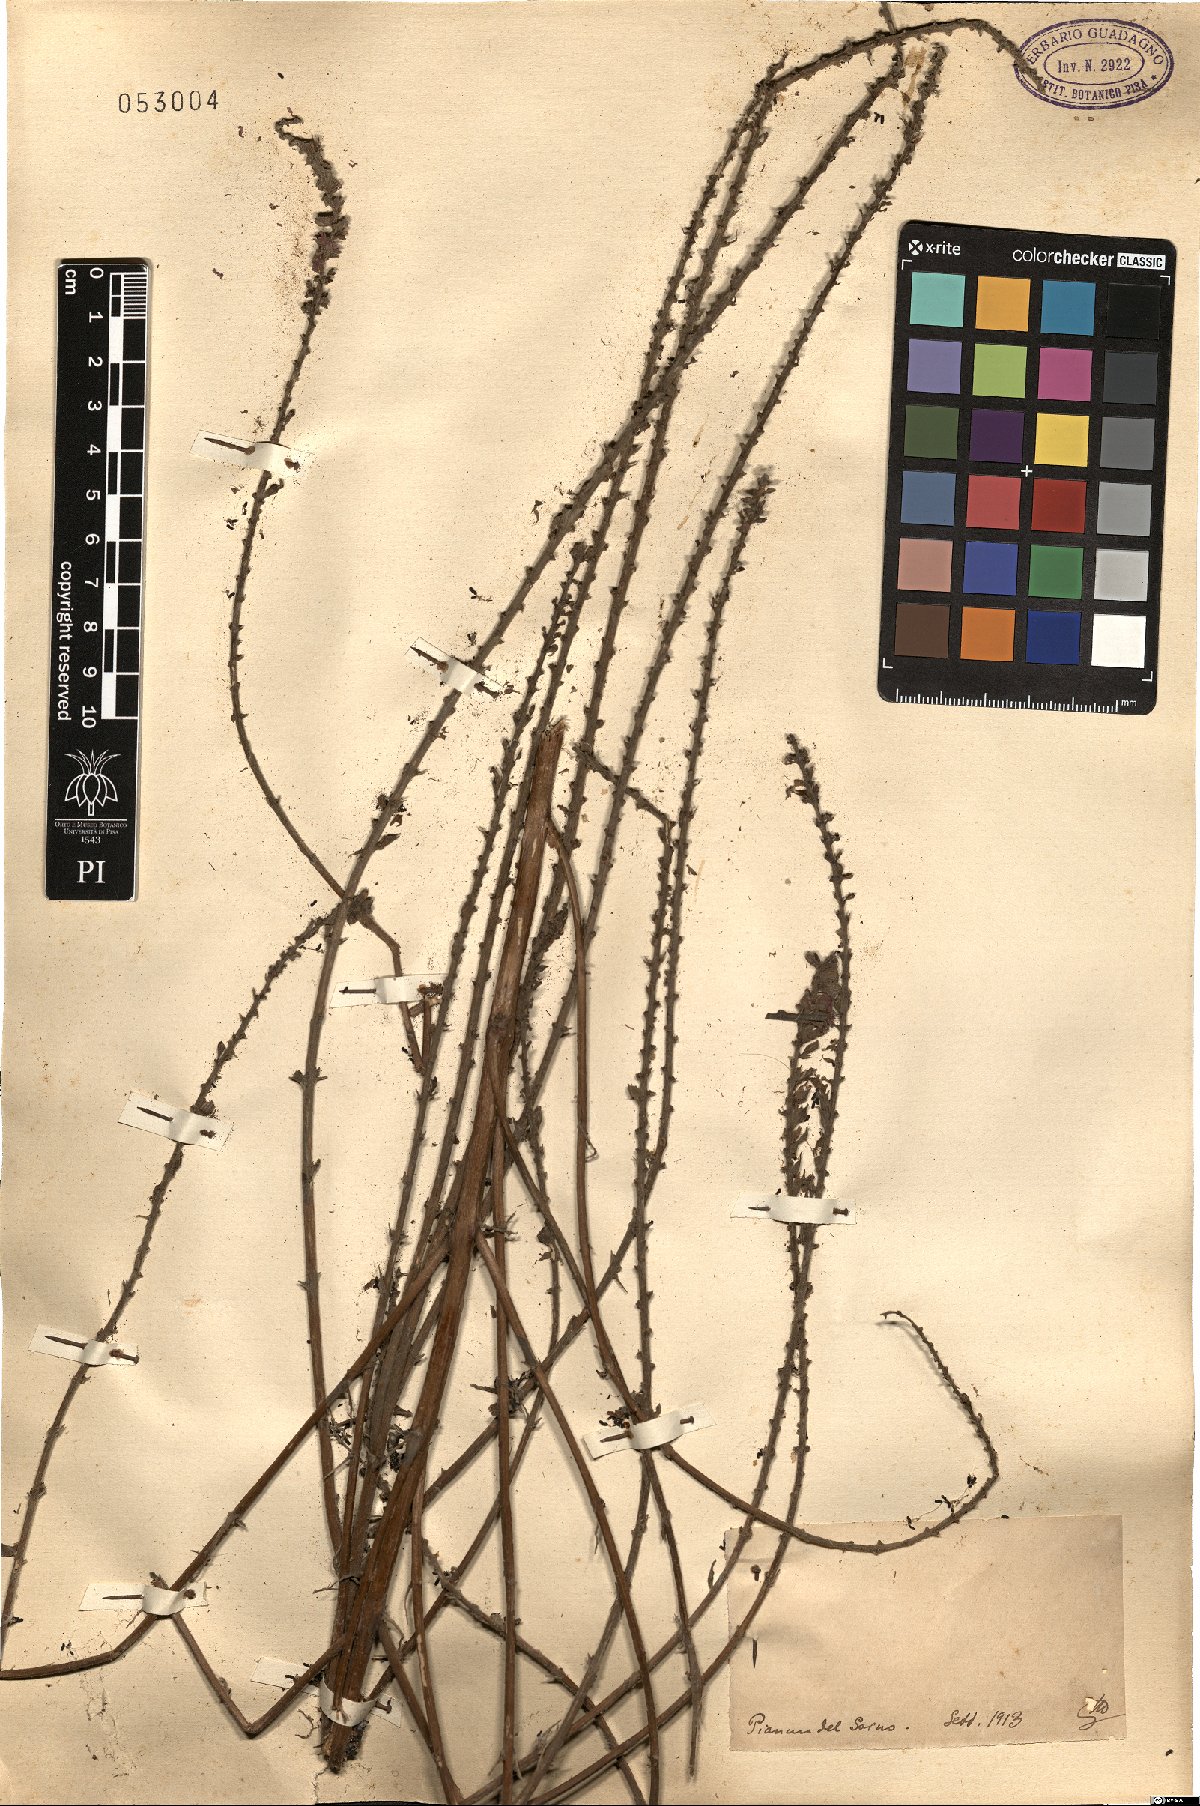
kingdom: Plantae
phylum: Tracheophyta
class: Magnoliopsida
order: Myrtales
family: Lythraceae
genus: Lythrum
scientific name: Lythrum
